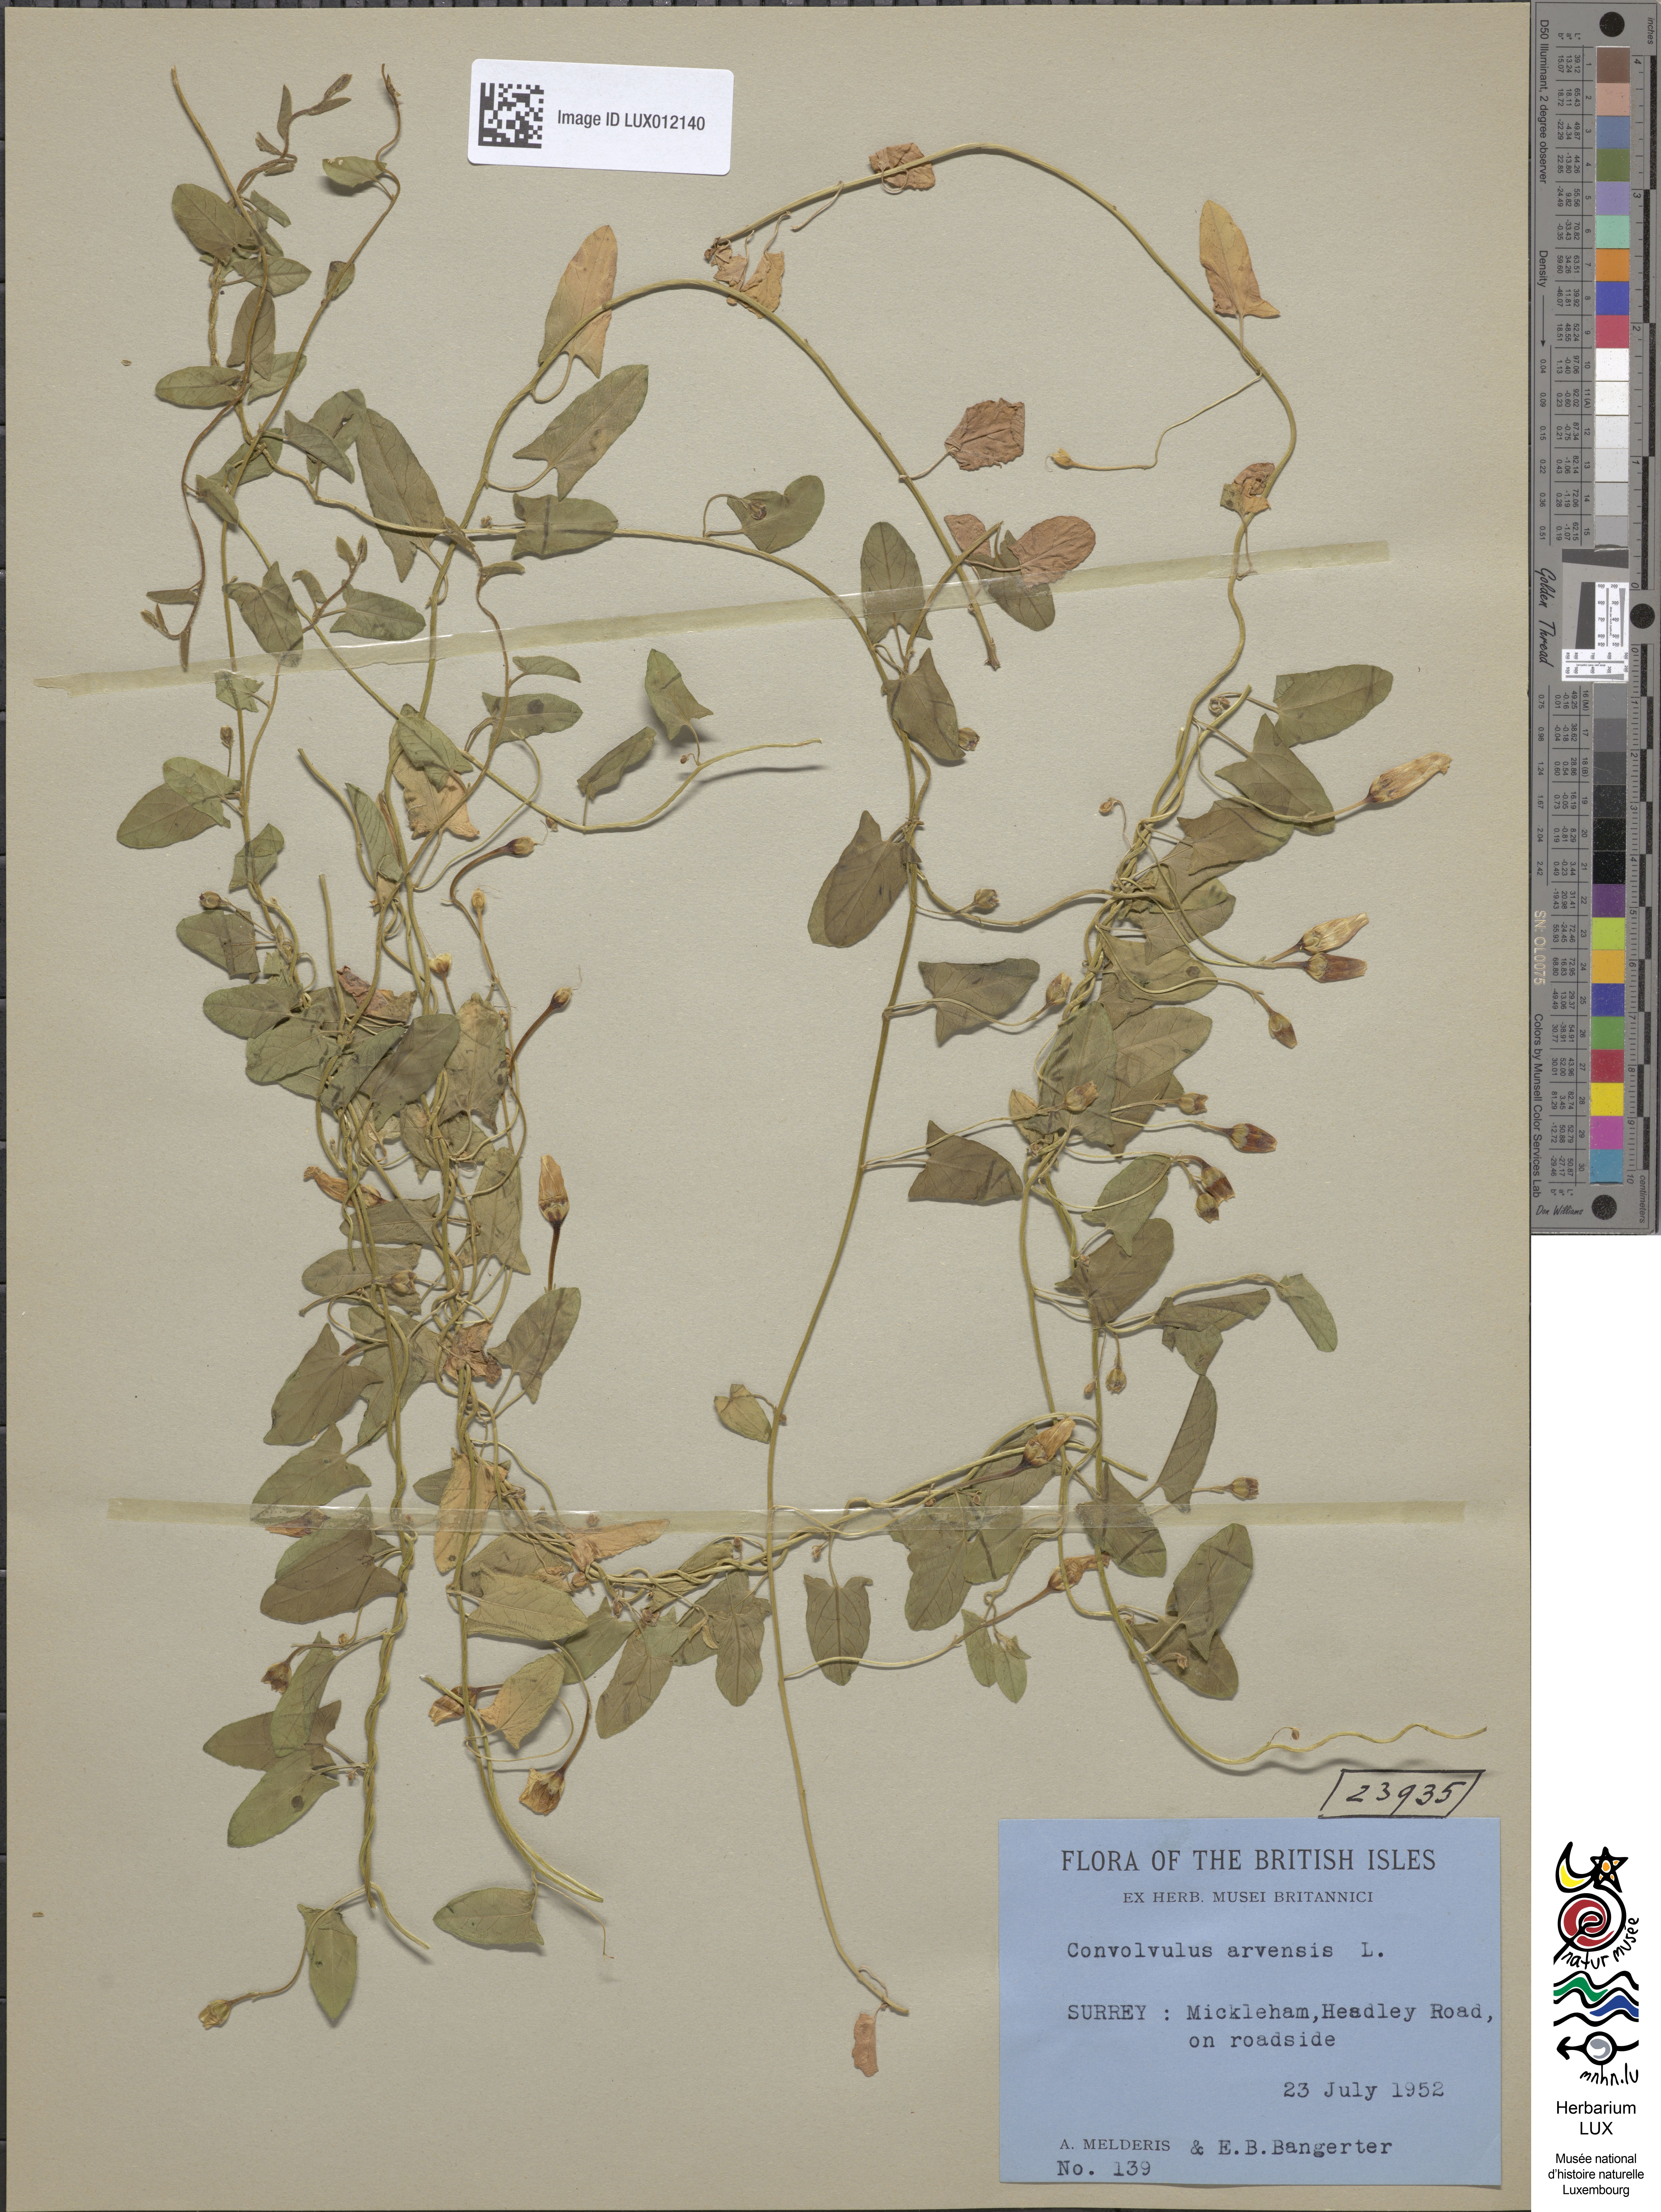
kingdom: Plantae
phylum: Tracheophyta
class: Magnoliopsida
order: Solanales
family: Convolvulaceae
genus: Convolvulus
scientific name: Convolvulus arvensis
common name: Field bindweed
